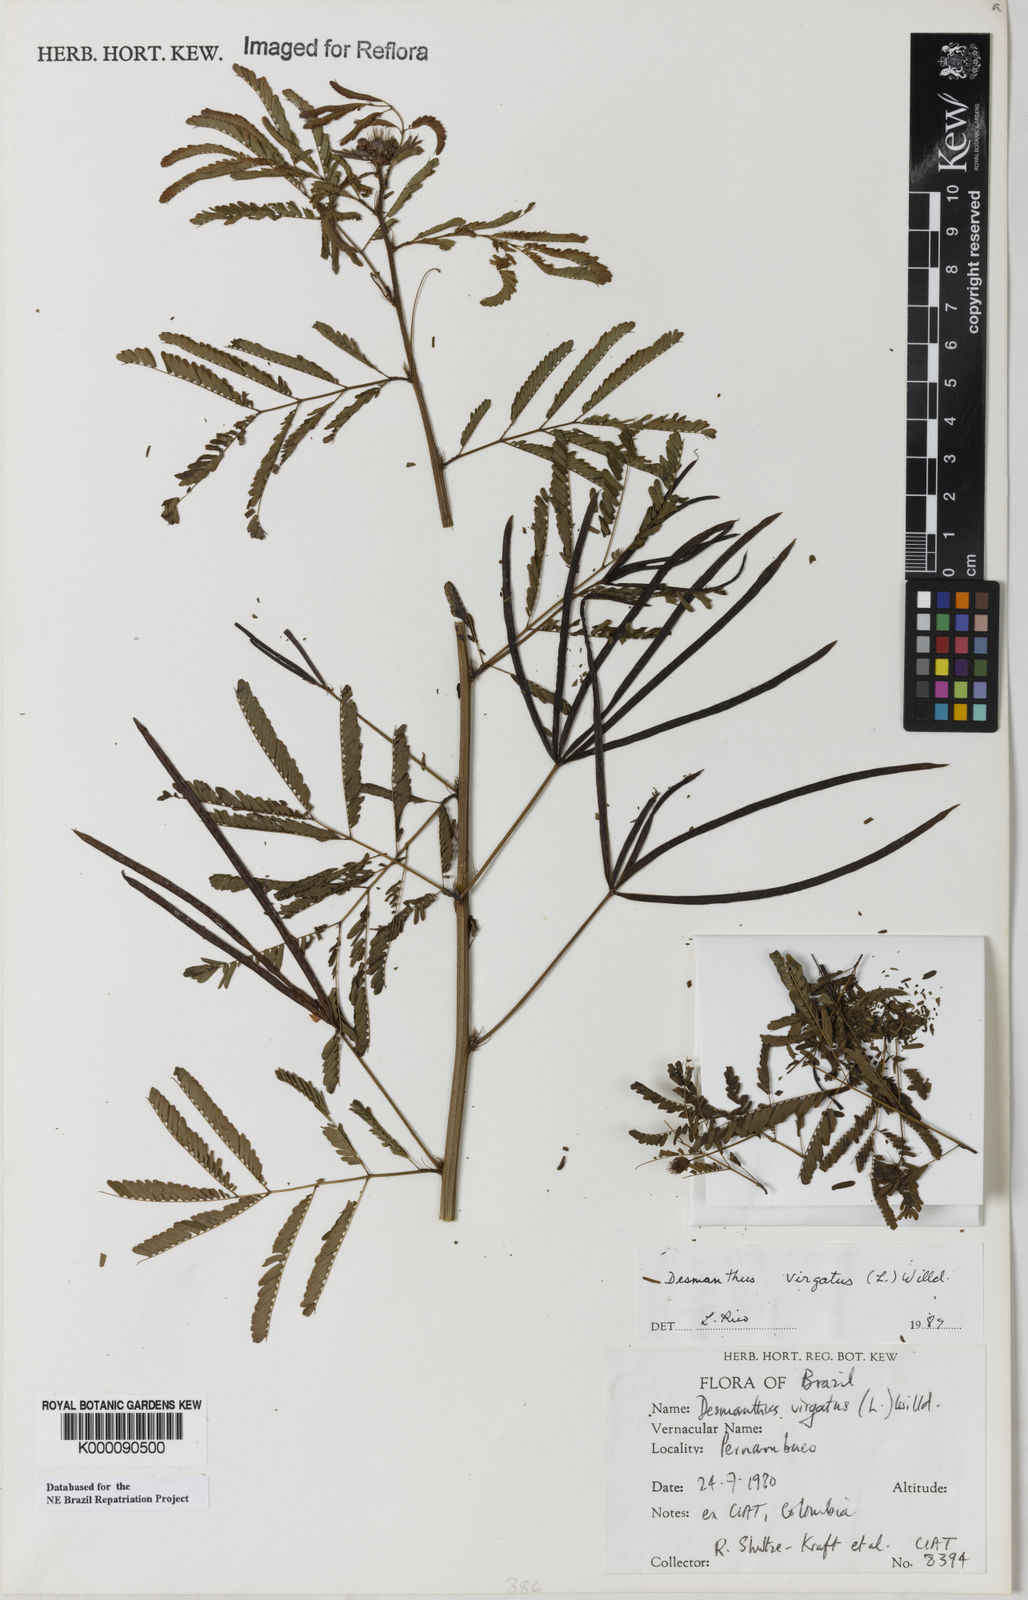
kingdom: Plantae
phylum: Tracheophyta
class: Magnoliopsida
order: Fabales
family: Fabaceae
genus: Desmanthus
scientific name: Desmanthus
